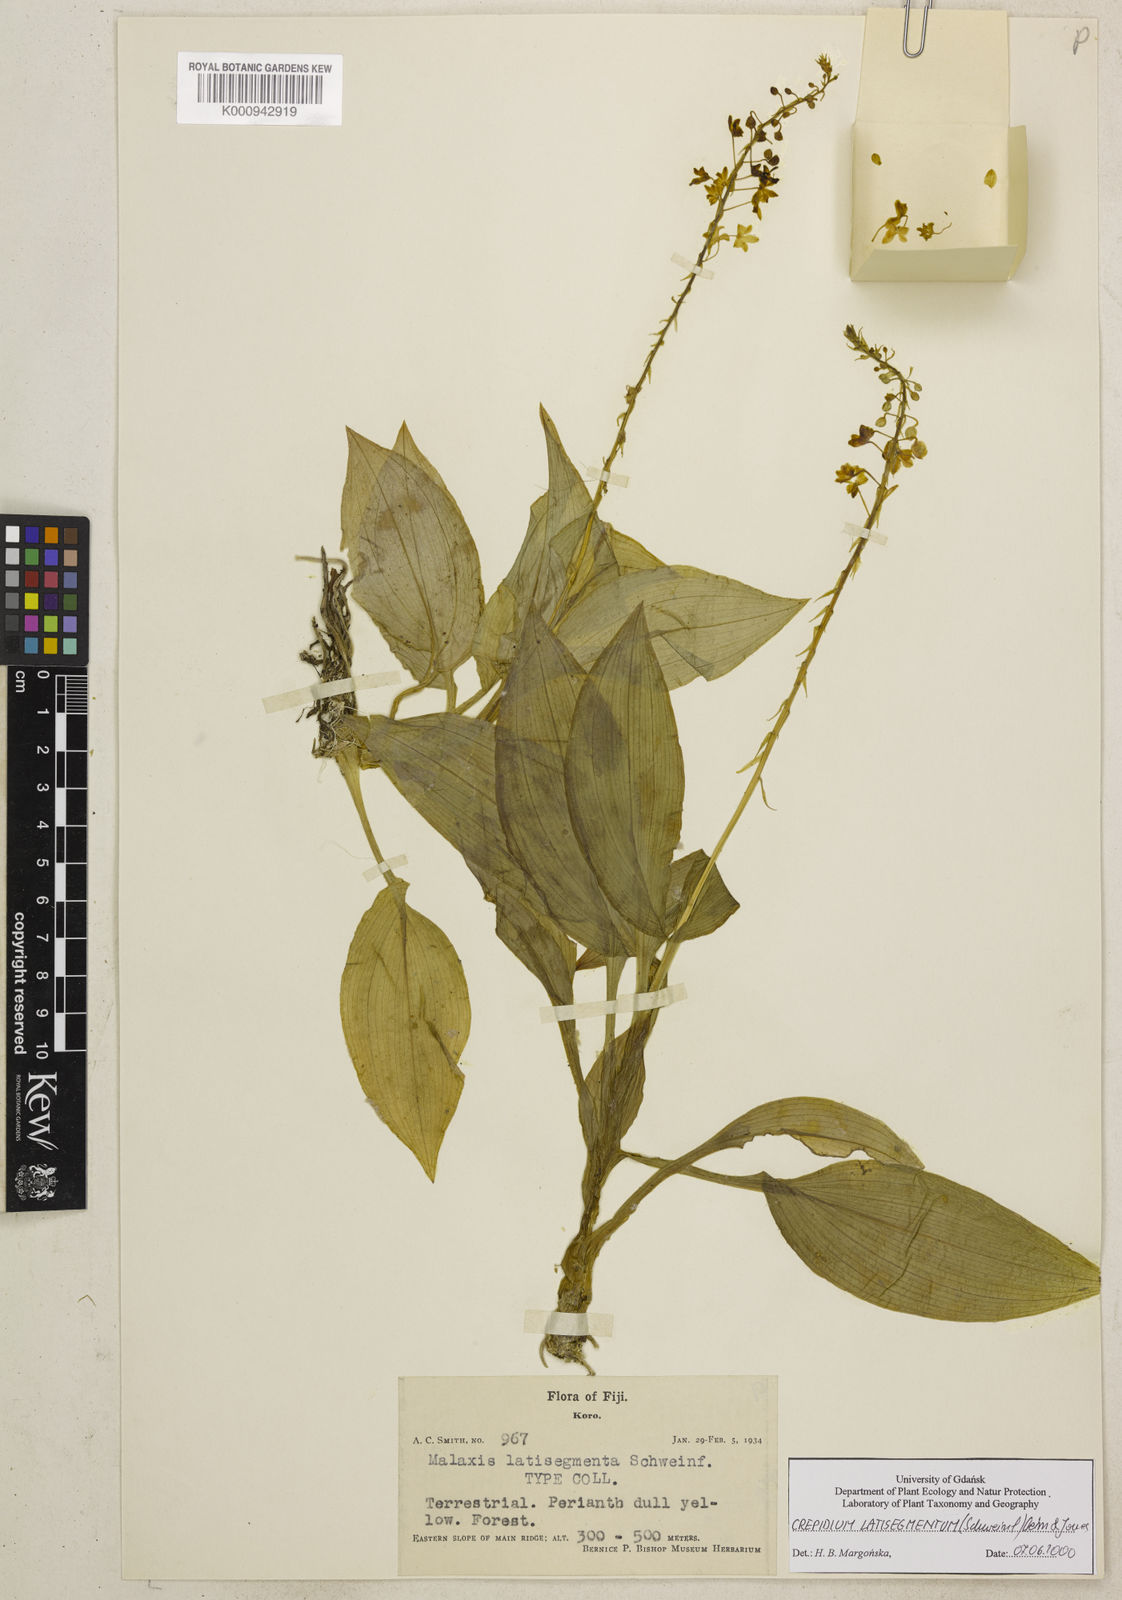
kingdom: Plantae
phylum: Tracheophyta
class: Liliopsida
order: Asparagales
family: Orchidaceae
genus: Crepidium
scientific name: Crepidium latisegmentum
